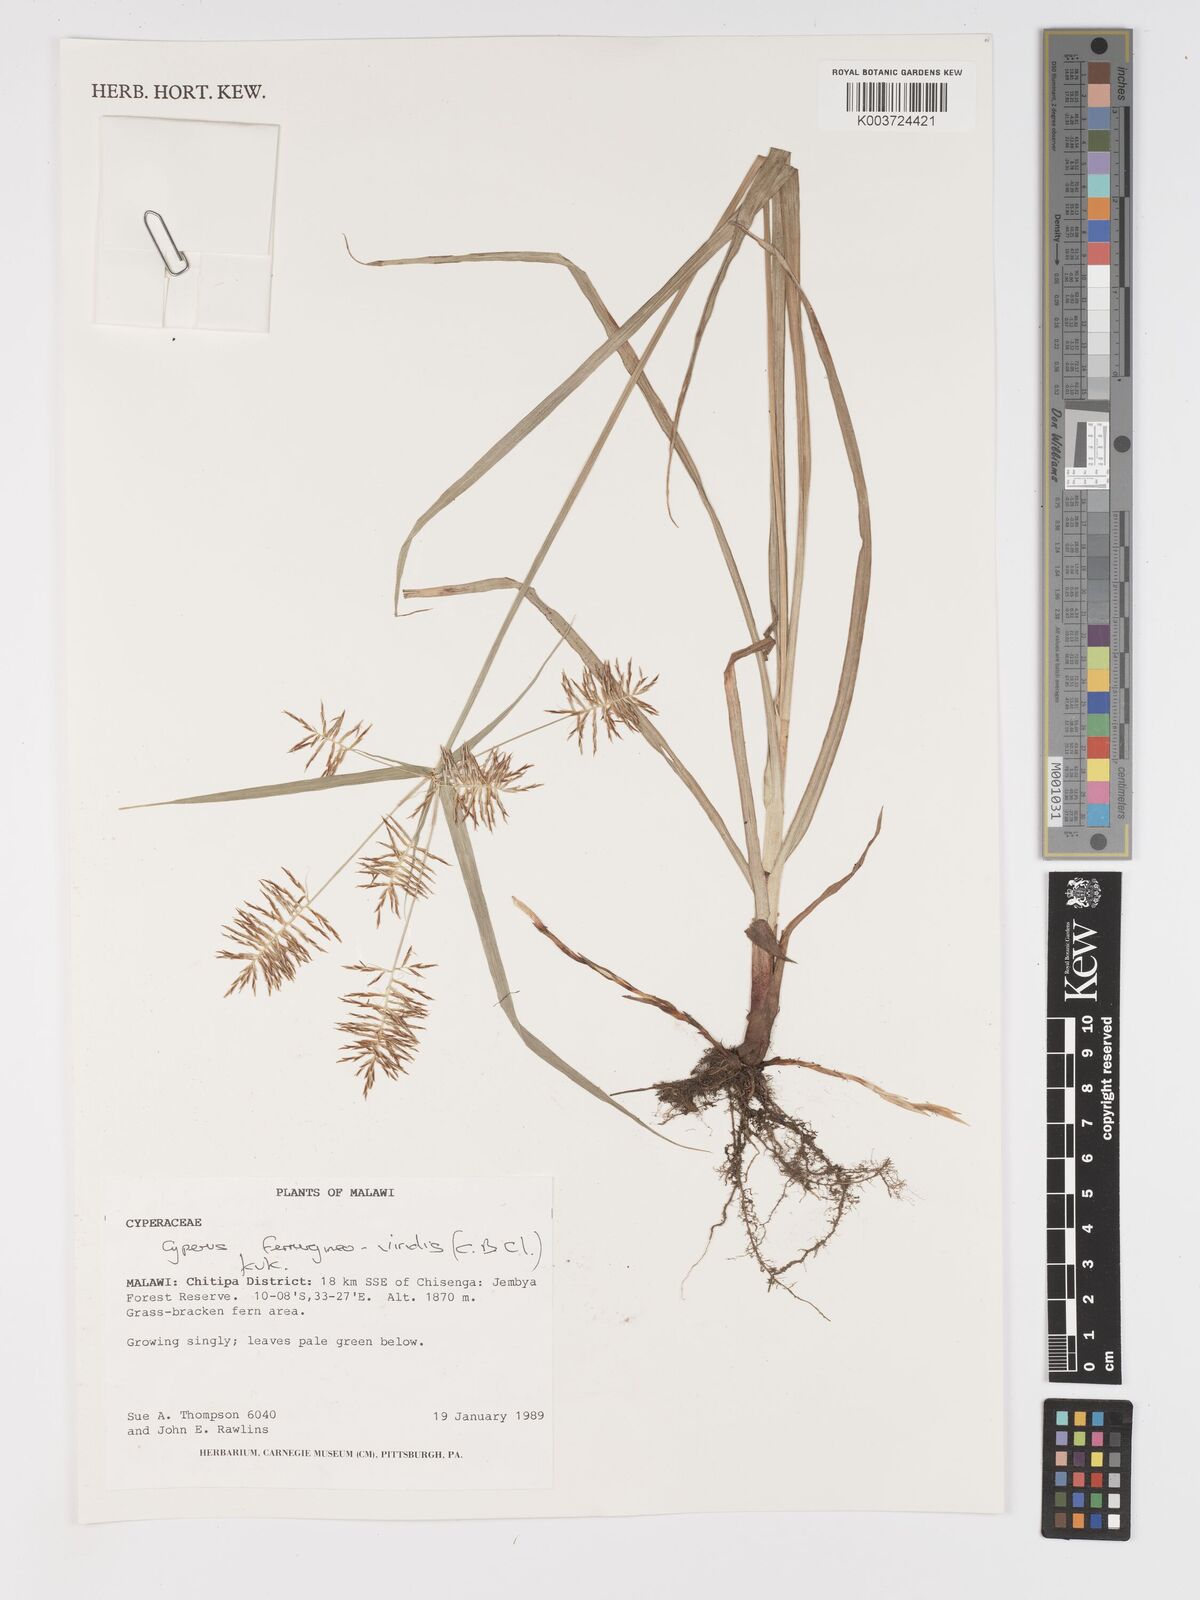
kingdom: Plantae
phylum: Tracheophyta
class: Liliopsida
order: Poales
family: Cyperaceae
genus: Cyperus
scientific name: Cyperus ferrugineoviridis
